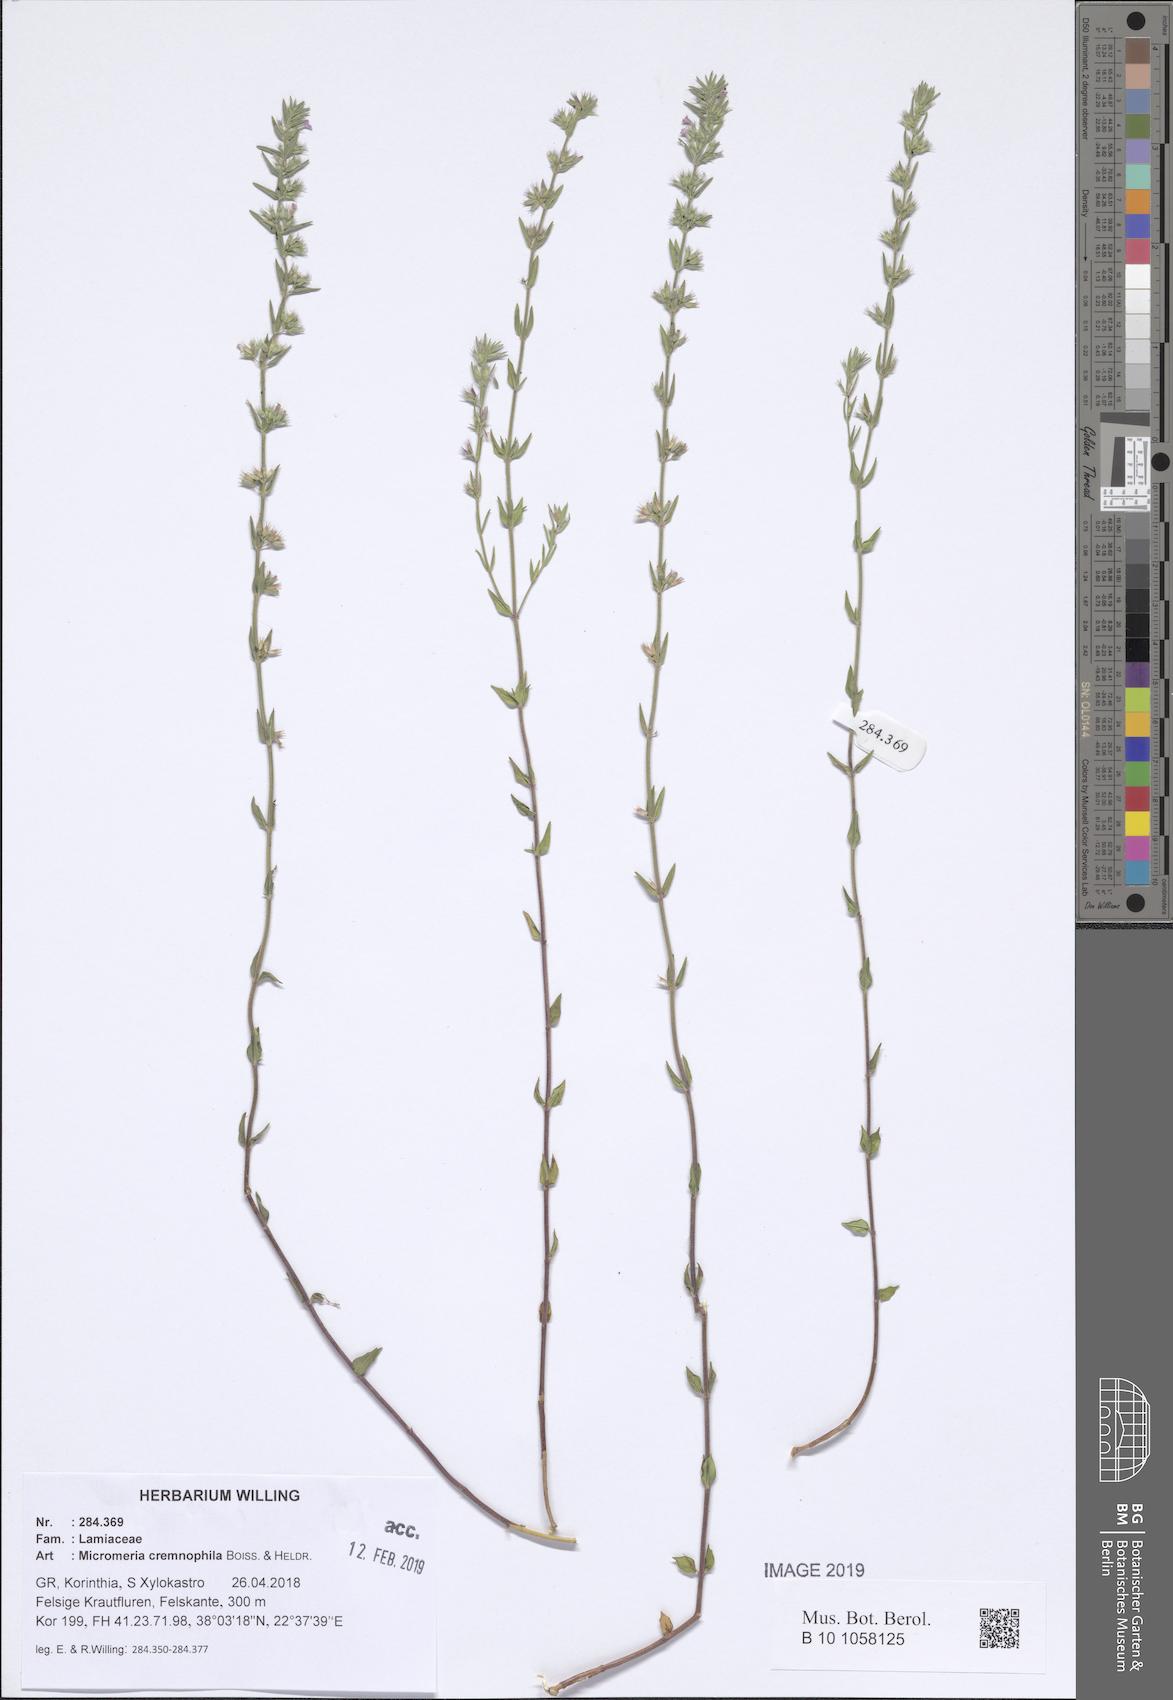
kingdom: Plantae
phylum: Tracheophyta
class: Magnoliopsida
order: Lamiales
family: Lamiaceae
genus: Micromeria
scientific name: Micromeria graeca
